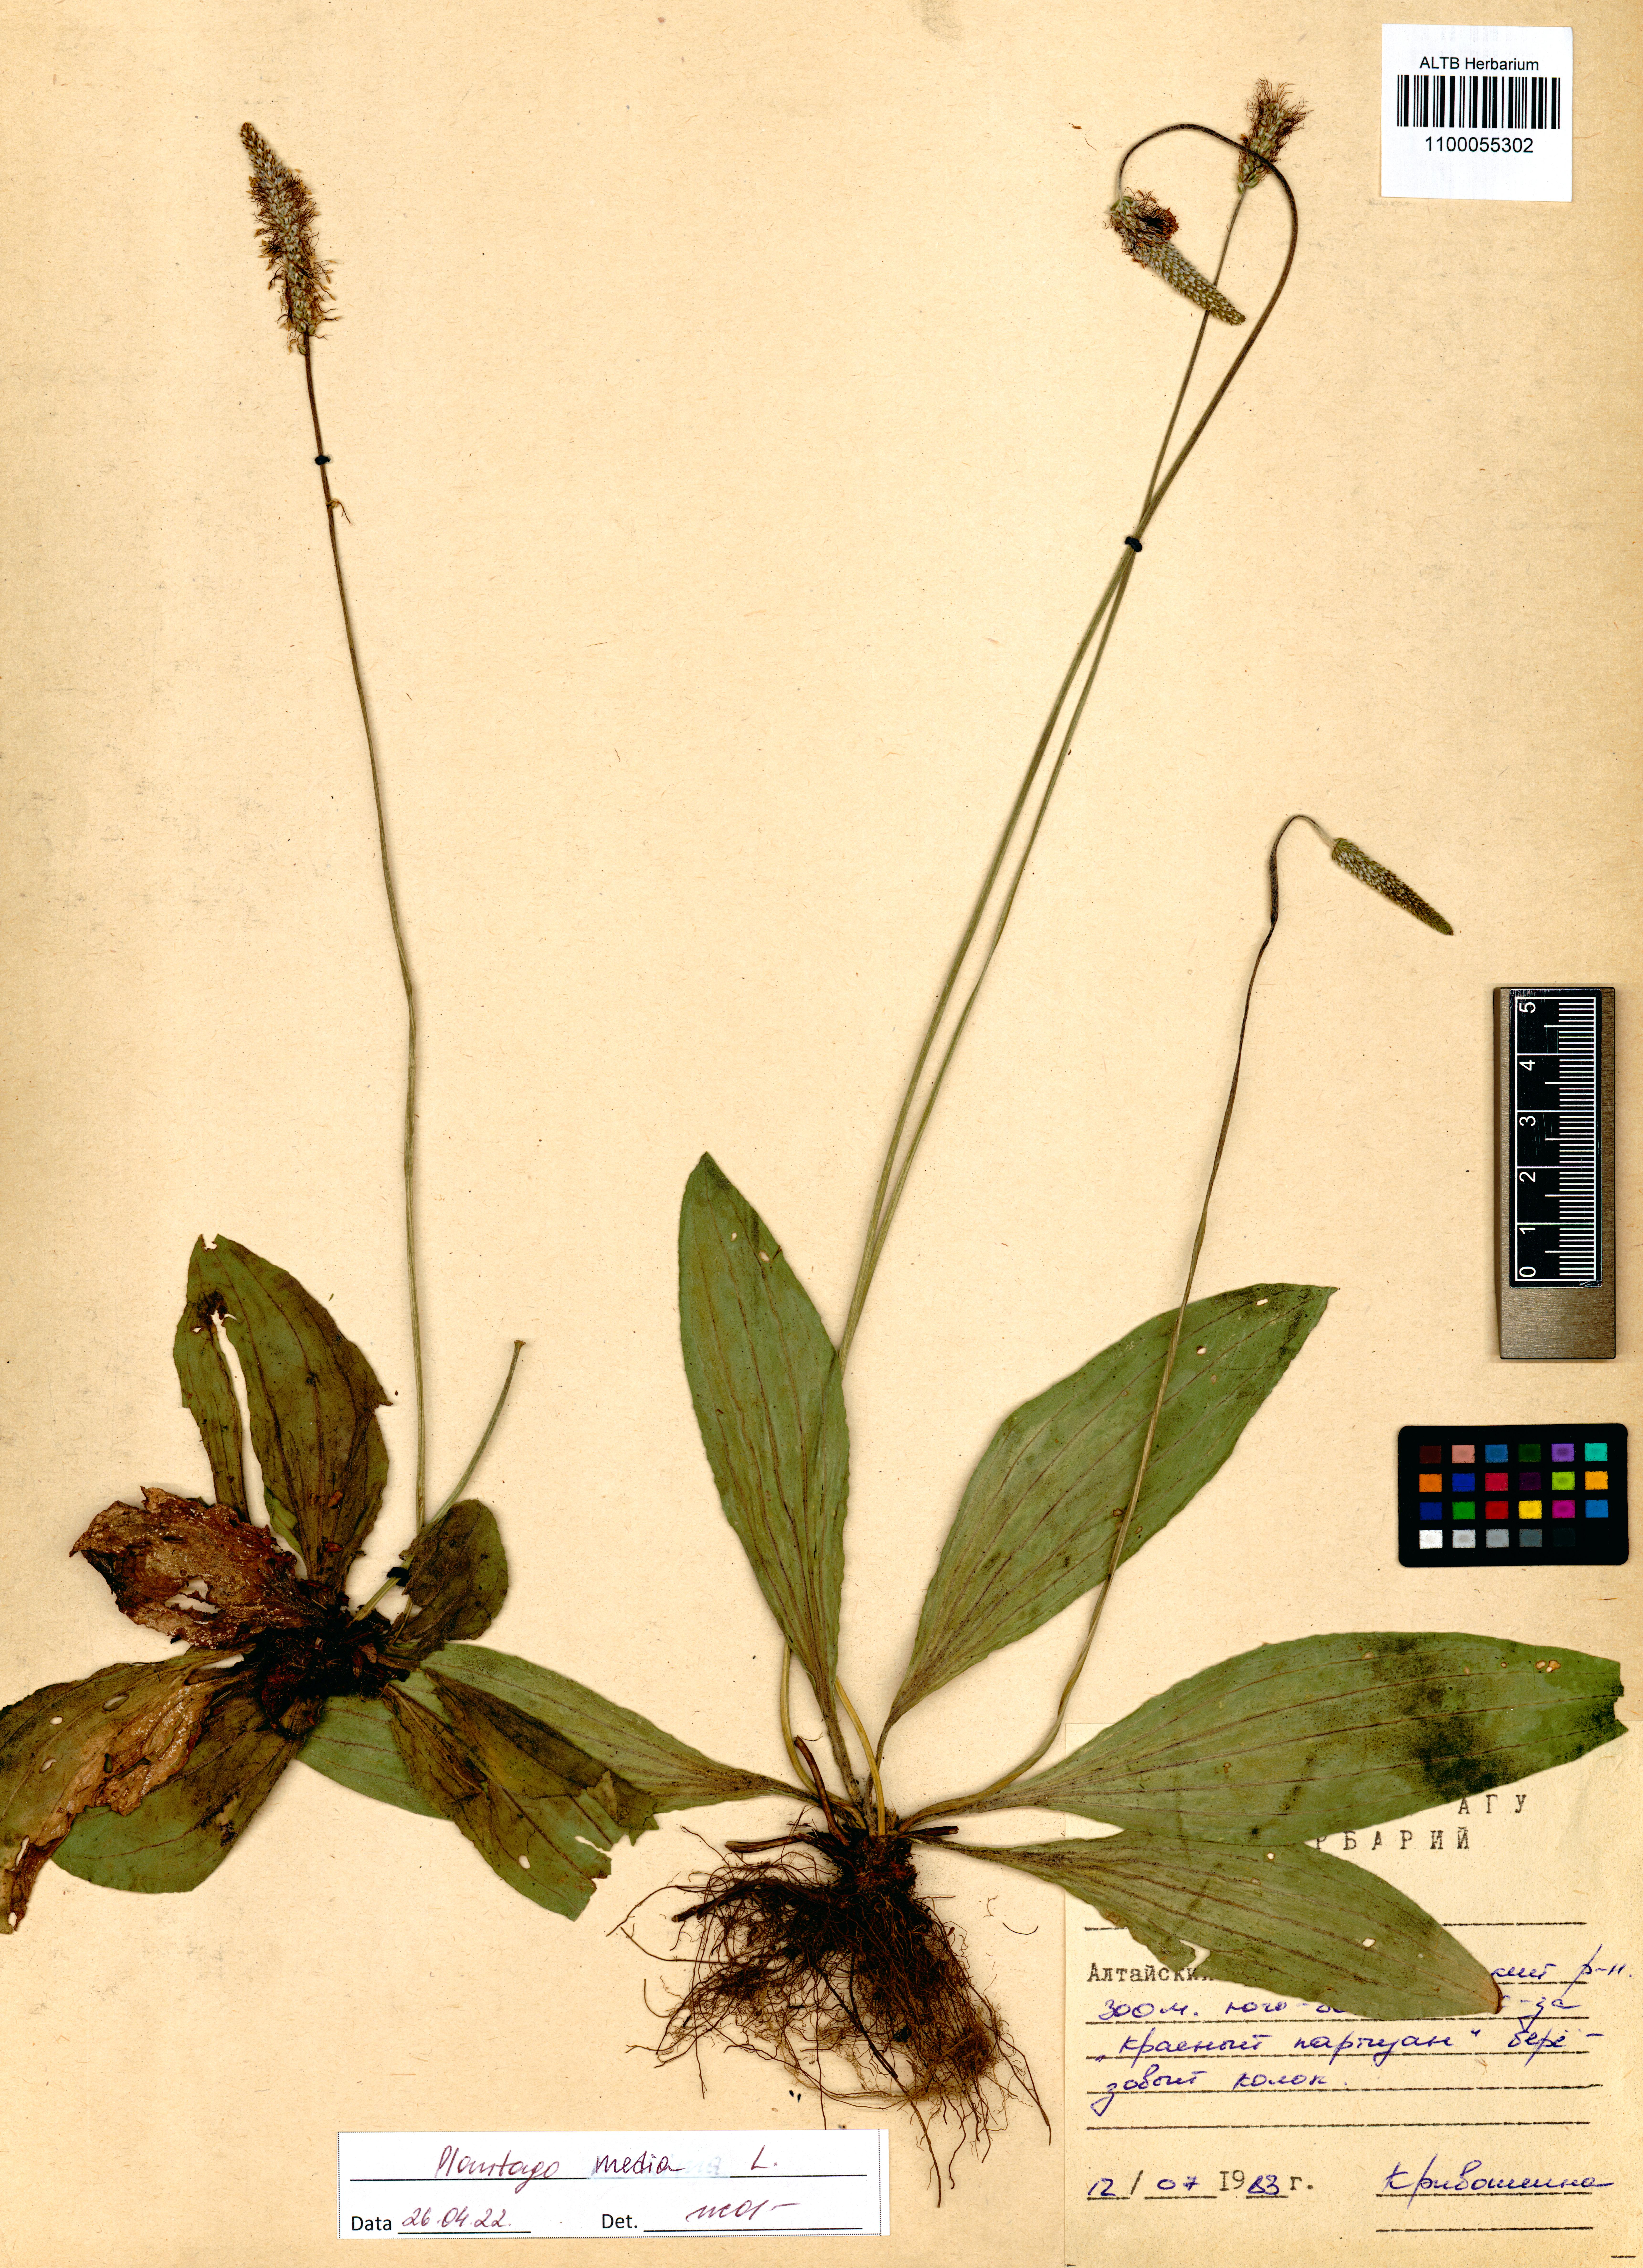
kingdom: Plantae
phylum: Tracheophyta
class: Magnoliopsida
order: Lamiales
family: Plantaginaceae
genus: Plantago
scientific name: Plantago media
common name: Hoary plantain
